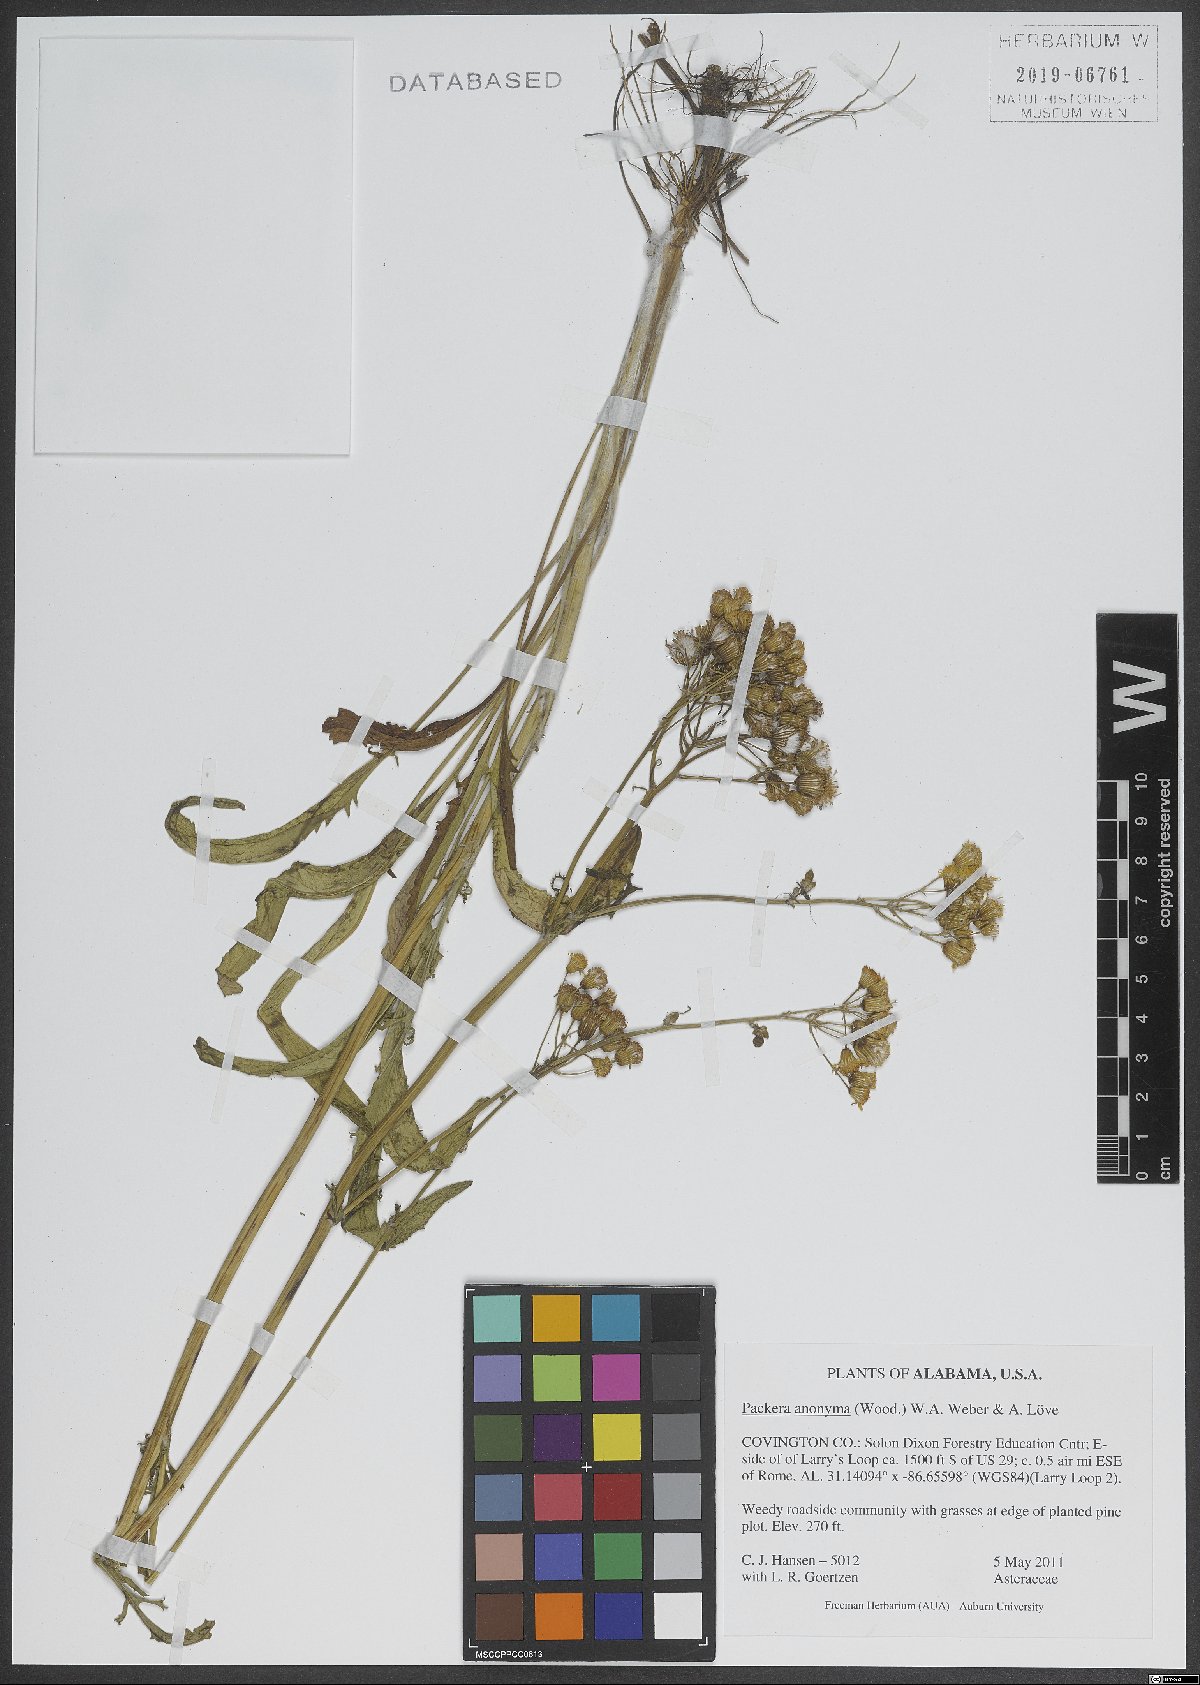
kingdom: Plantae
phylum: Tracheophyta
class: Magnoliopsida
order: Asterales
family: Asteraceae
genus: Packera
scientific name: Packera anonyma
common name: Small ragwort
